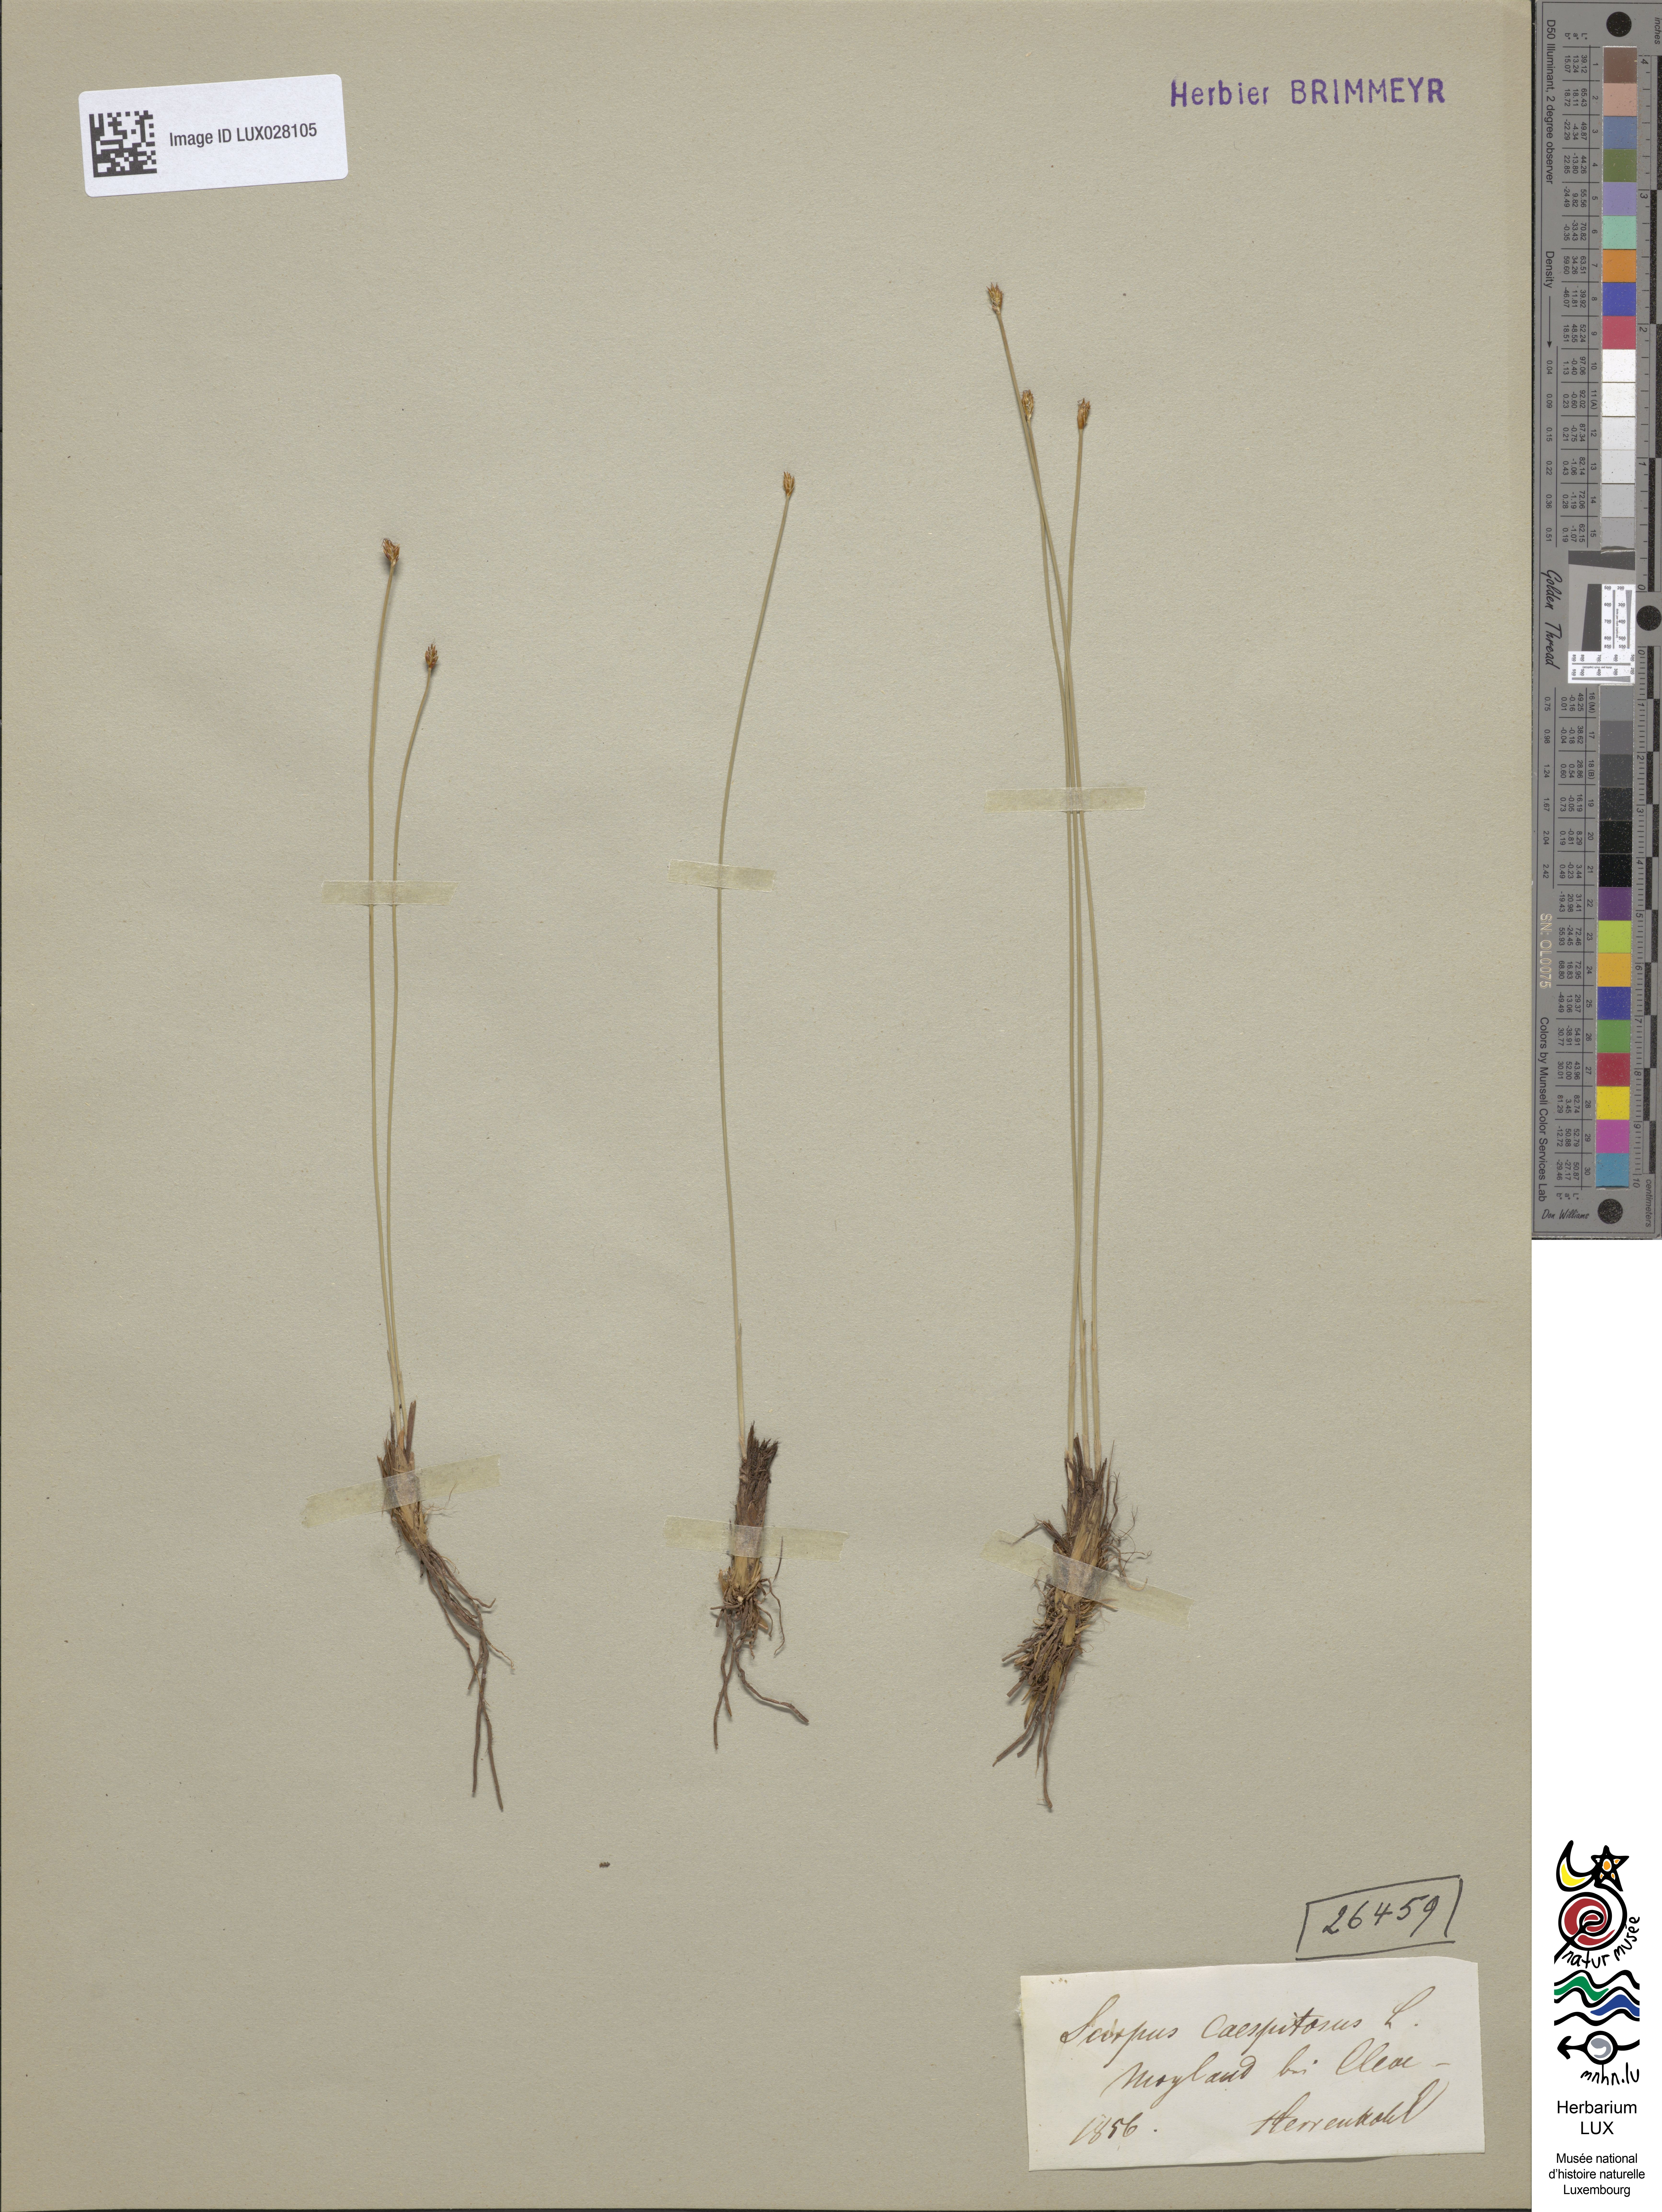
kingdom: Plantae
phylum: Tracheophyta
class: Liliopsida
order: Poales
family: Cyperaceae
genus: Trichophorum
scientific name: Trichophorum cespitosum
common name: Cespitose bulrush
